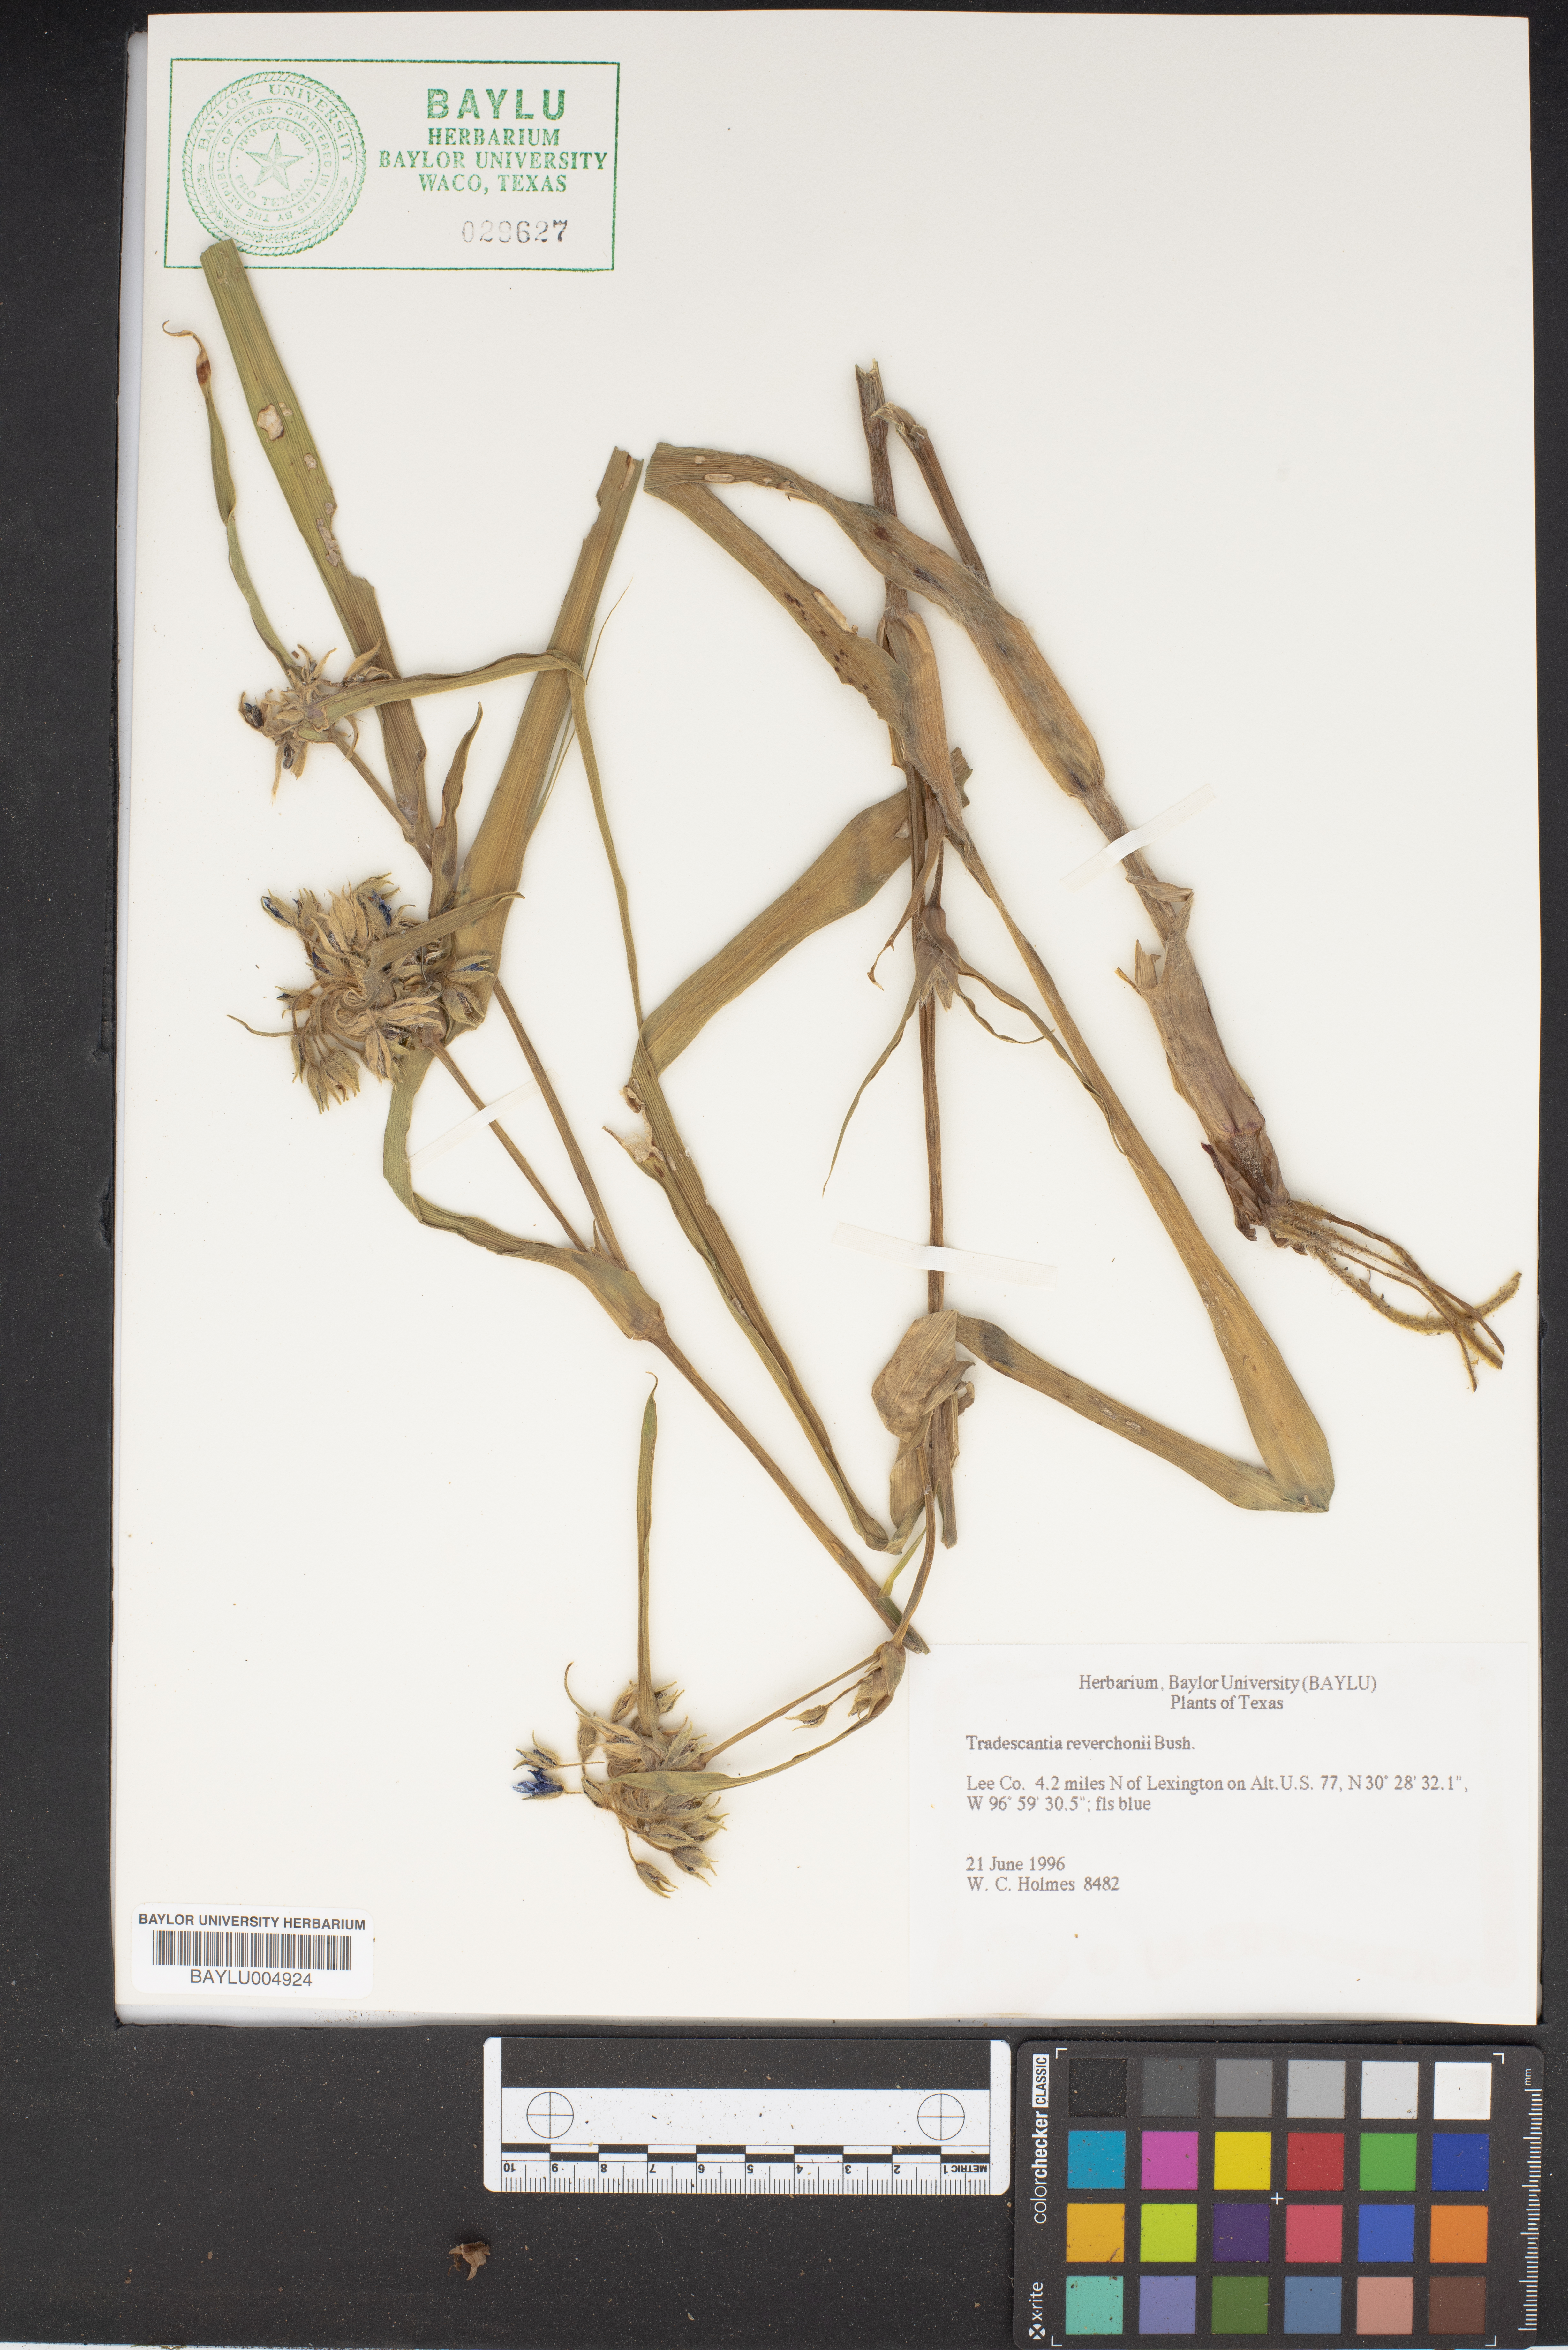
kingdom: Plantae
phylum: Tracheophyta
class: Liliopsida
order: Commelinales
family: Commelinaceae
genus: Tradescantia
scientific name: Tradescantia reverchonii
